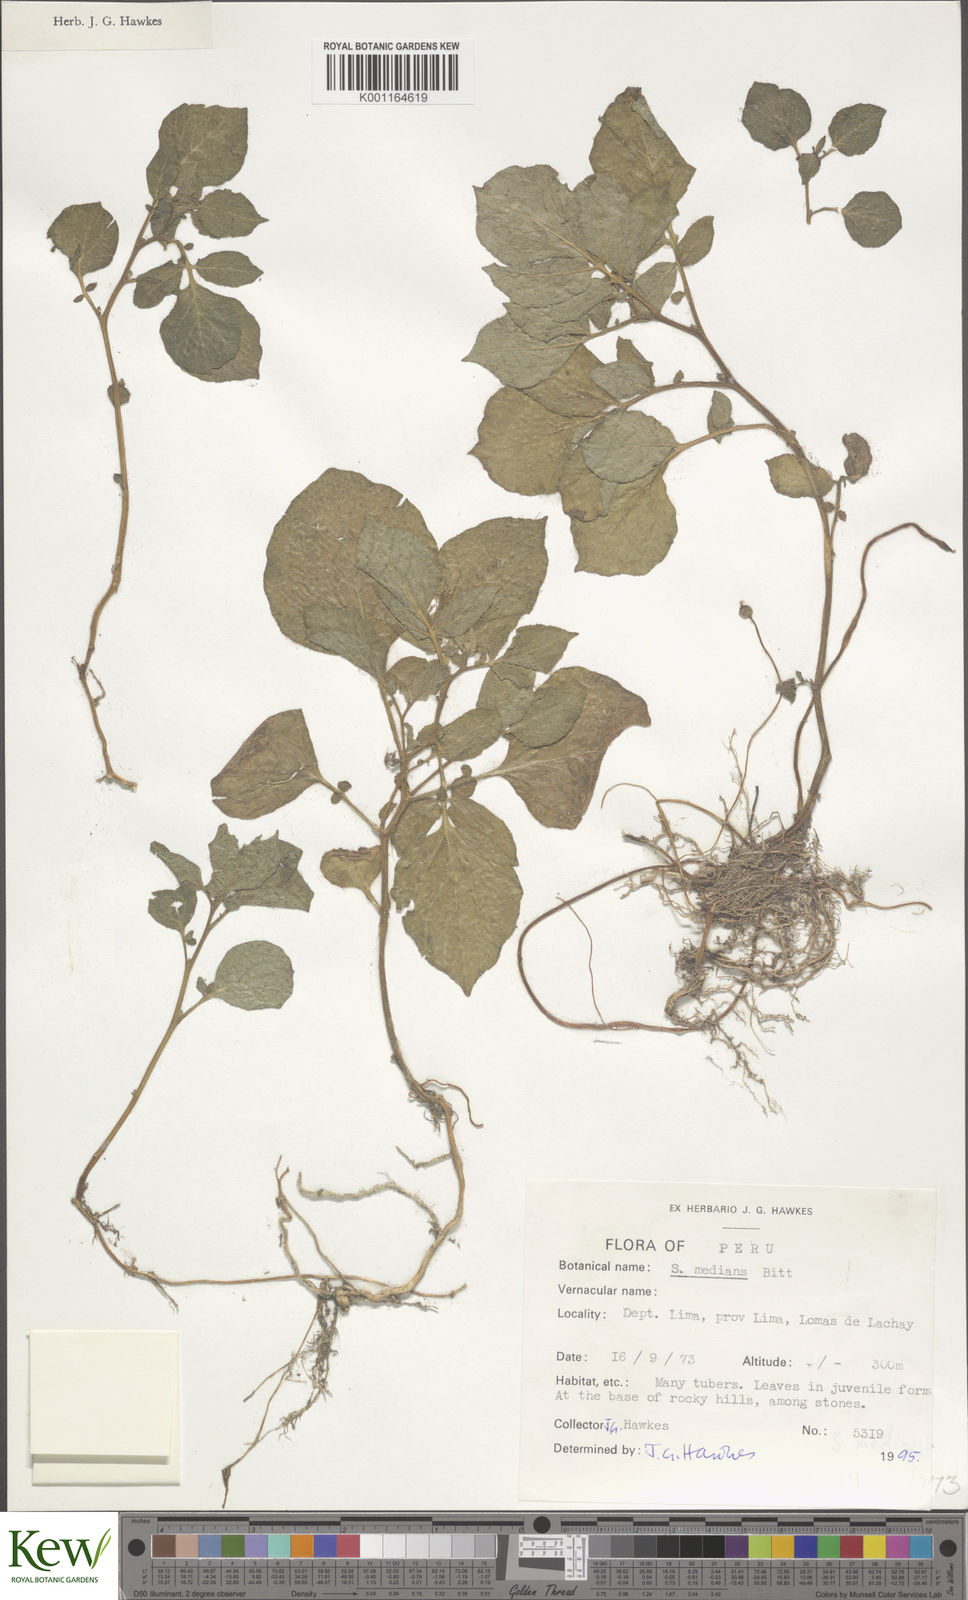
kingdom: Plantae
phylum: Tracheophyta
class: Magnoliopsida
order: Solanales
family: Solanaceae
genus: Solanum
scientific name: Solanum medians
